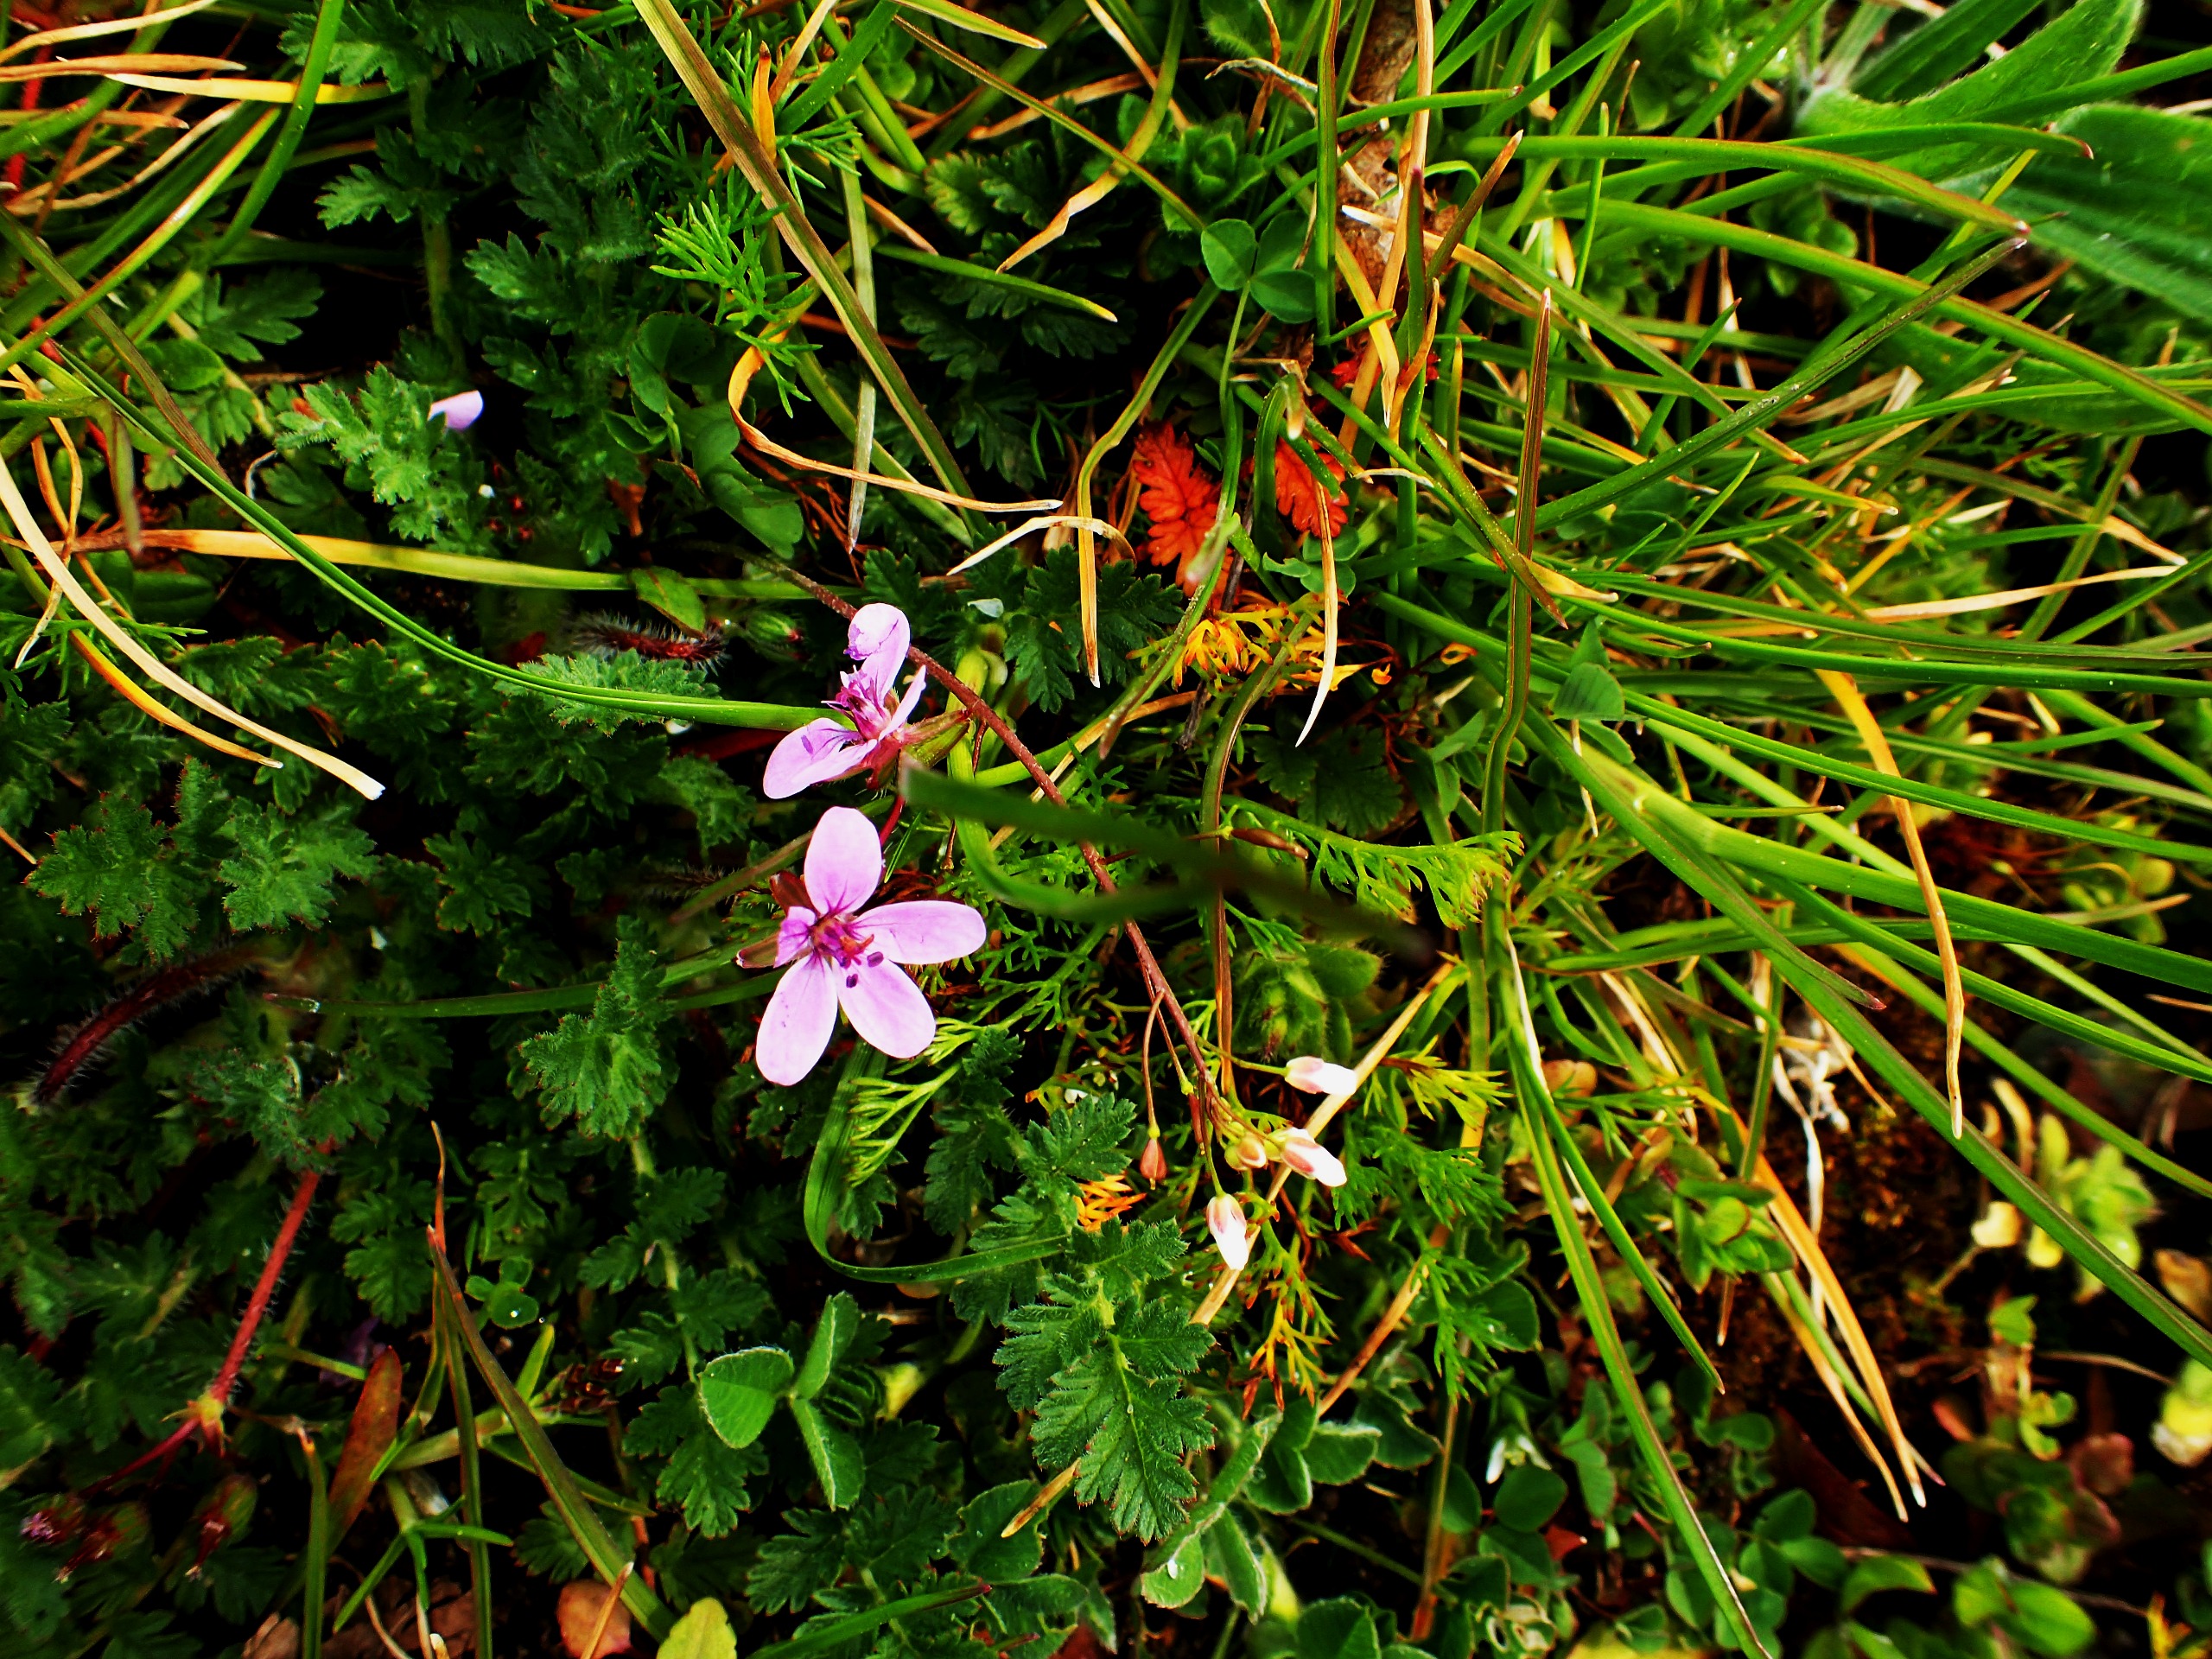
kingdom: Plantae
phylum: Tracheophyta
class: Magnoliopsida
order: Geraniales
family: Geraniaceae
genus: Erodium
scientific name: Erodium cicutarium
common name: Hejrenæb
